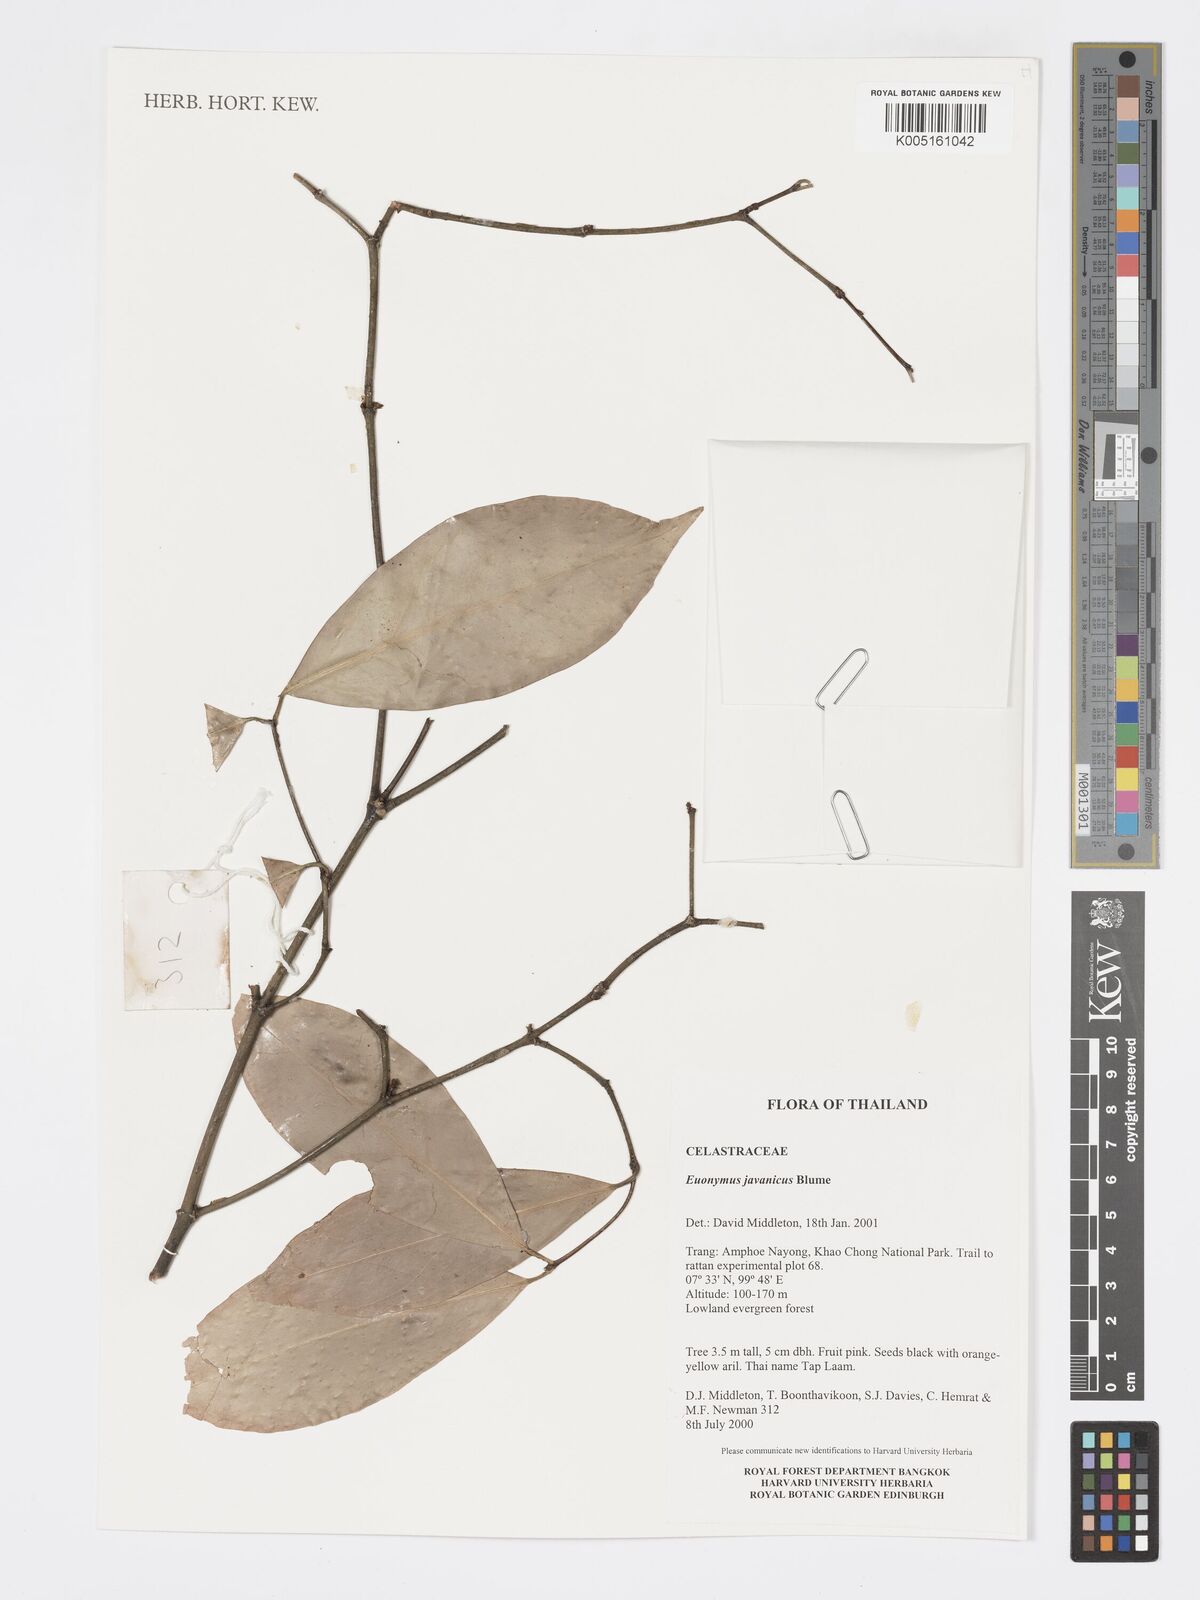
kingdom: Plantae
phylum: Tracheophyta
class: Magnoliopsida
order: Celastrales
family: Celastraceae
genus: Euonymus
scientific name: Euonymus indicus
